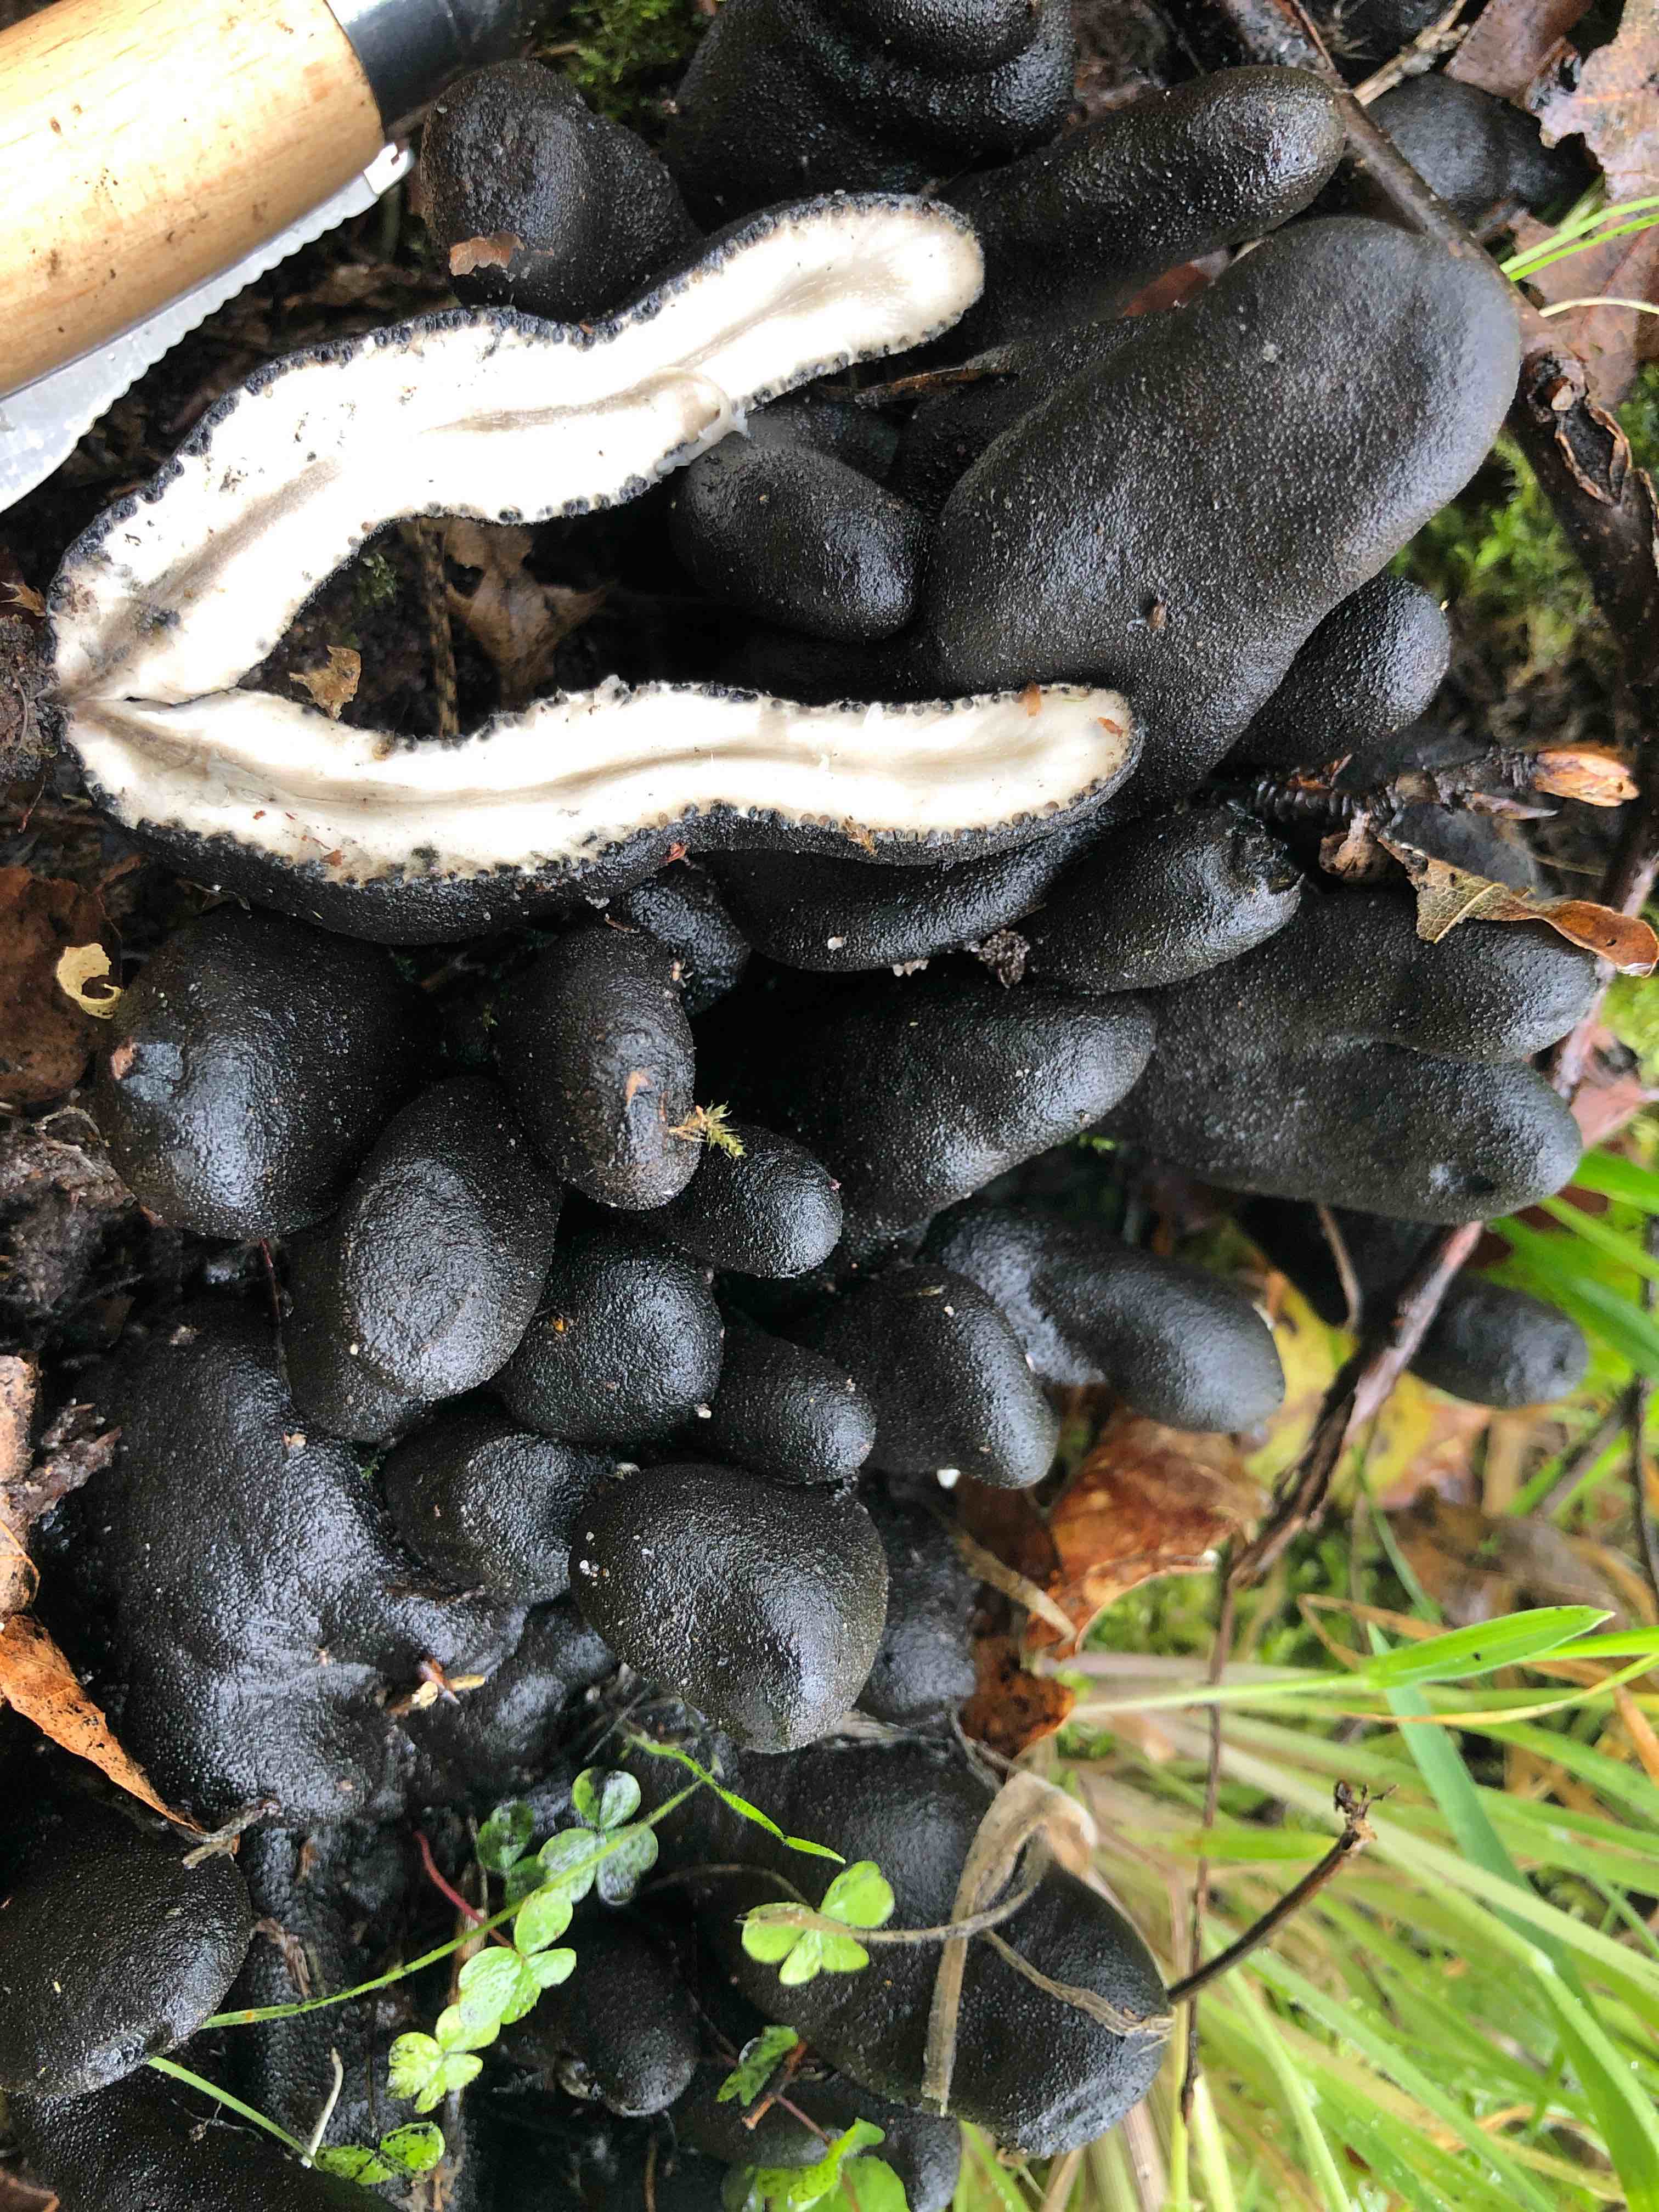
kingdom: Fungi
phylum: Ascomycota
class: Sordariomycetes
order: Xylariales
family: Xylariaceae
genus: Xylaria
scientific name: Xylaria polymorpha
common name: kølle-stødsvamp
